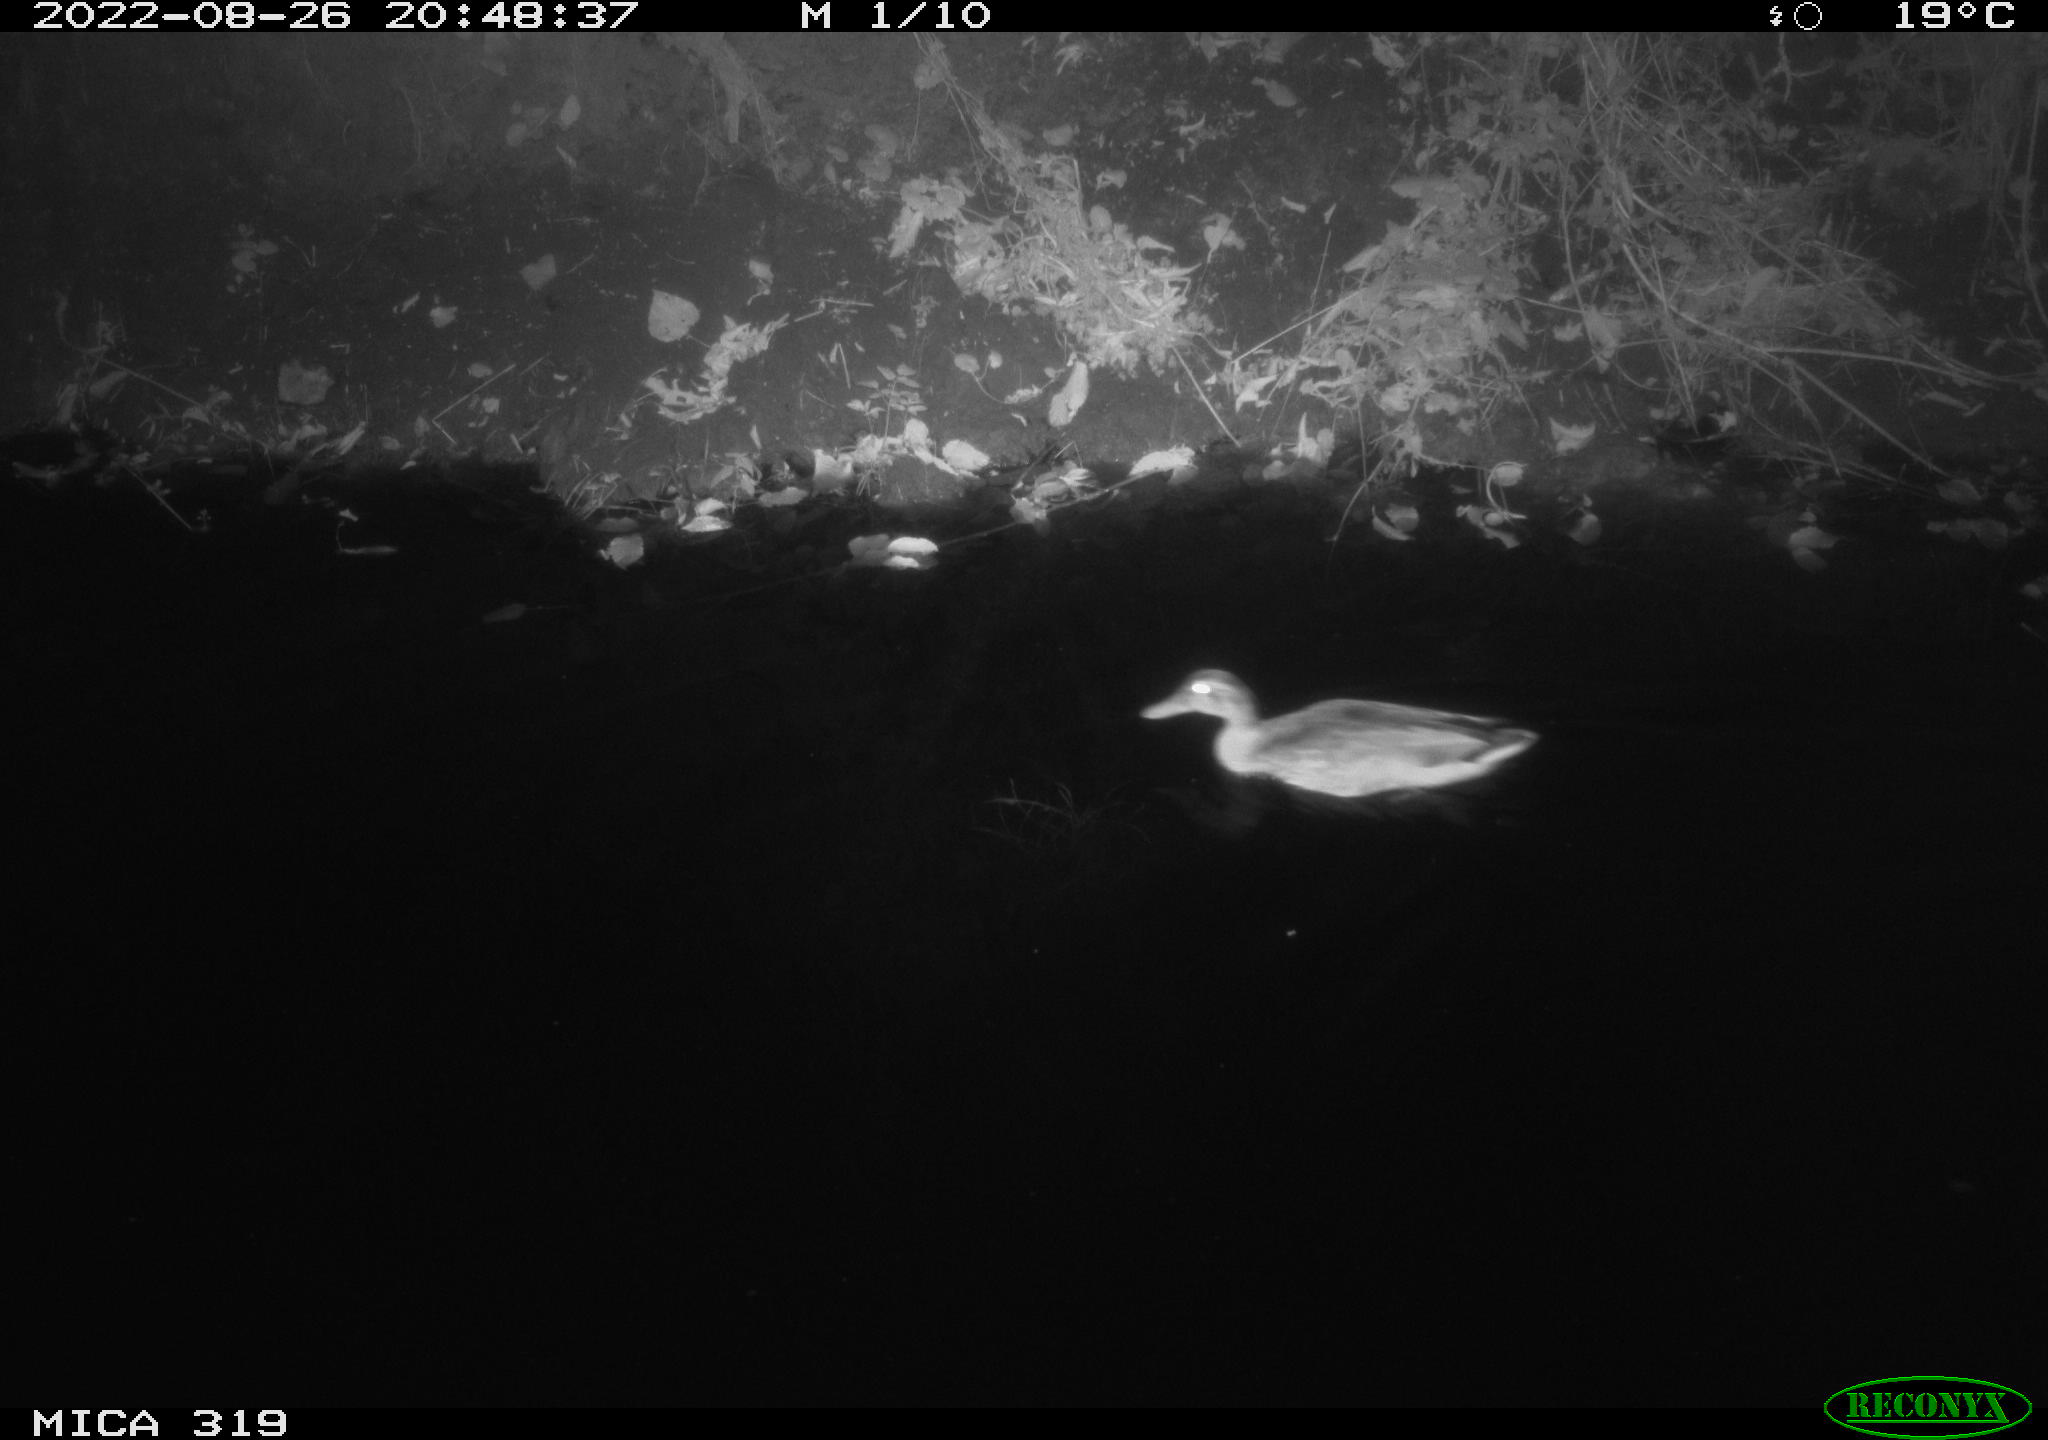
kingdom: Animalia
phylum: Chordata
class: Aves
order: Anseriformes
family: Anatidae
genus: Anas
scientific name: Anas
